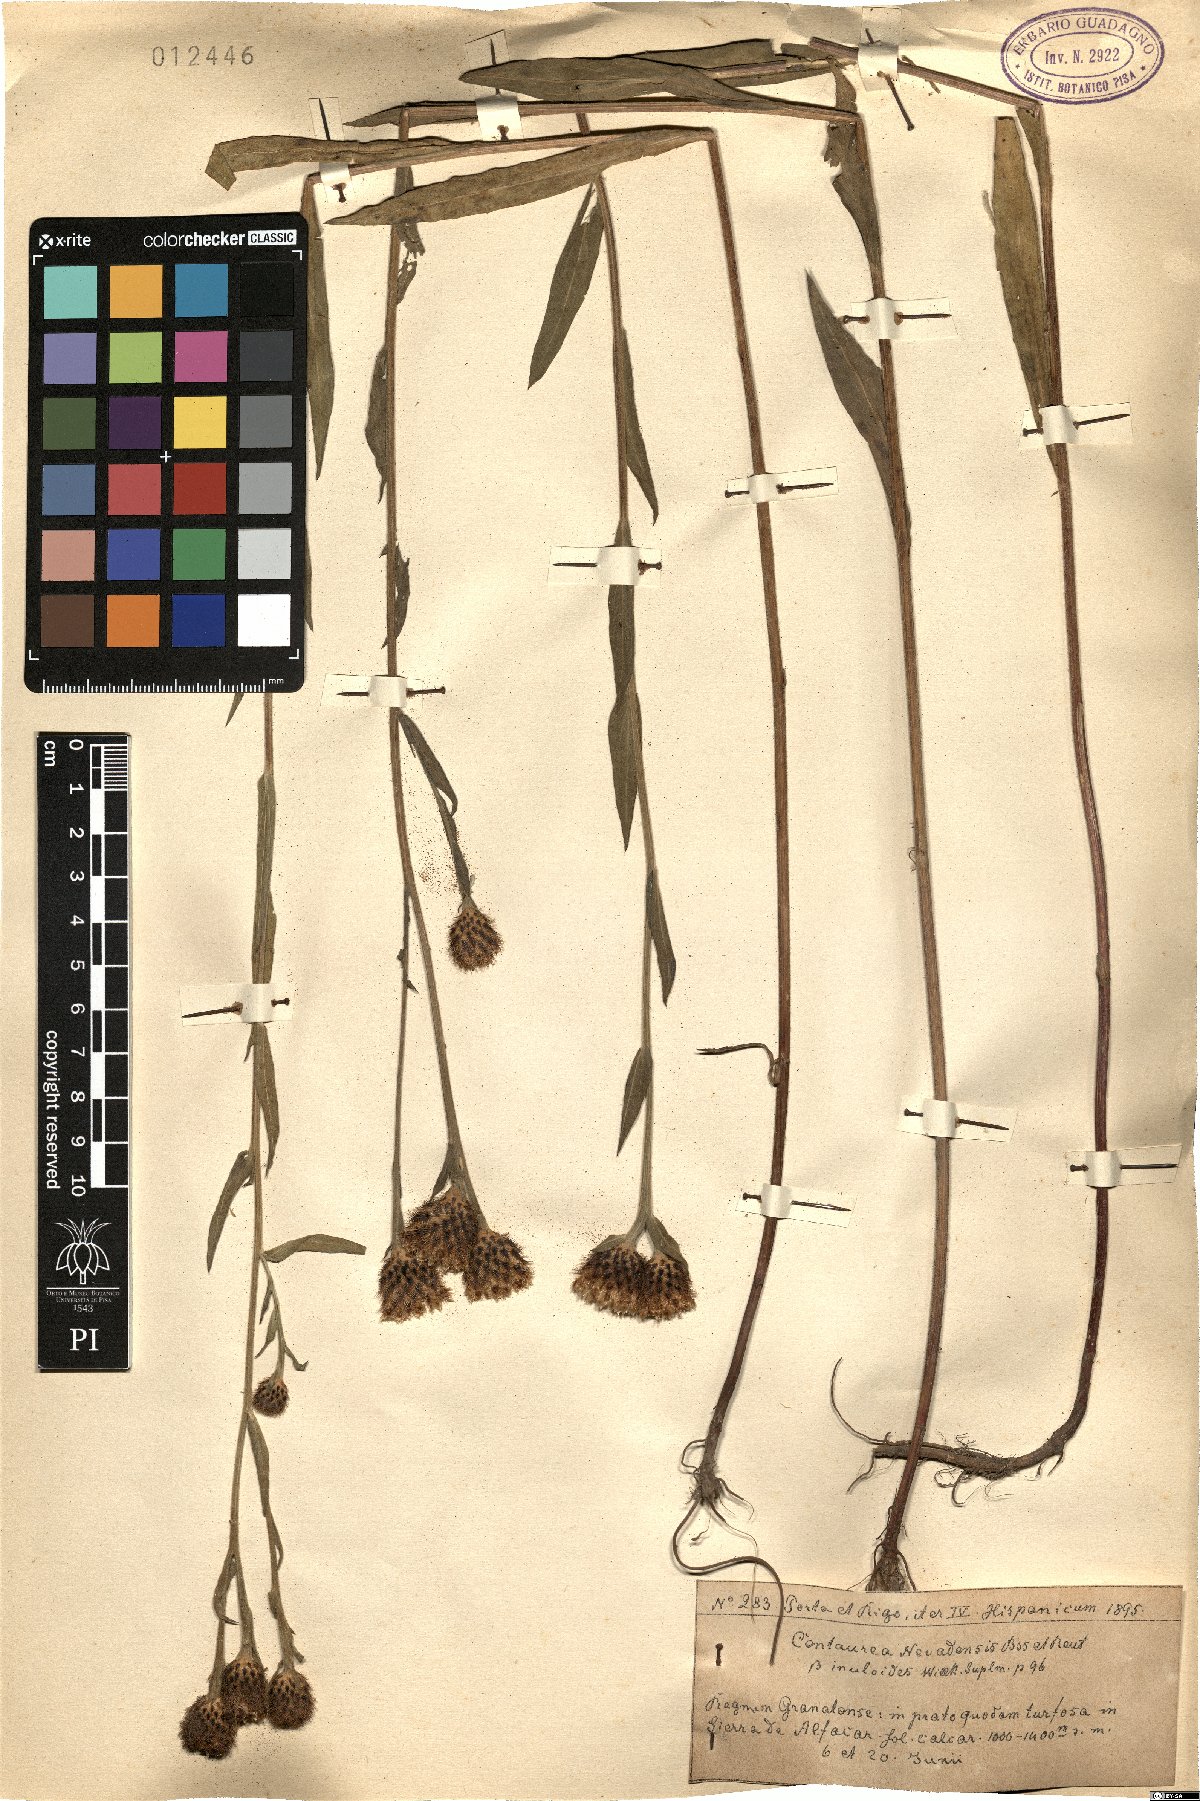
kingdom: Plantae
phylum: Tracheophyta
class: Magnoliopsida
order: Asterales
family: Asteraceae
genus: Centaurea
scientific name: Centaurea nevadensis
